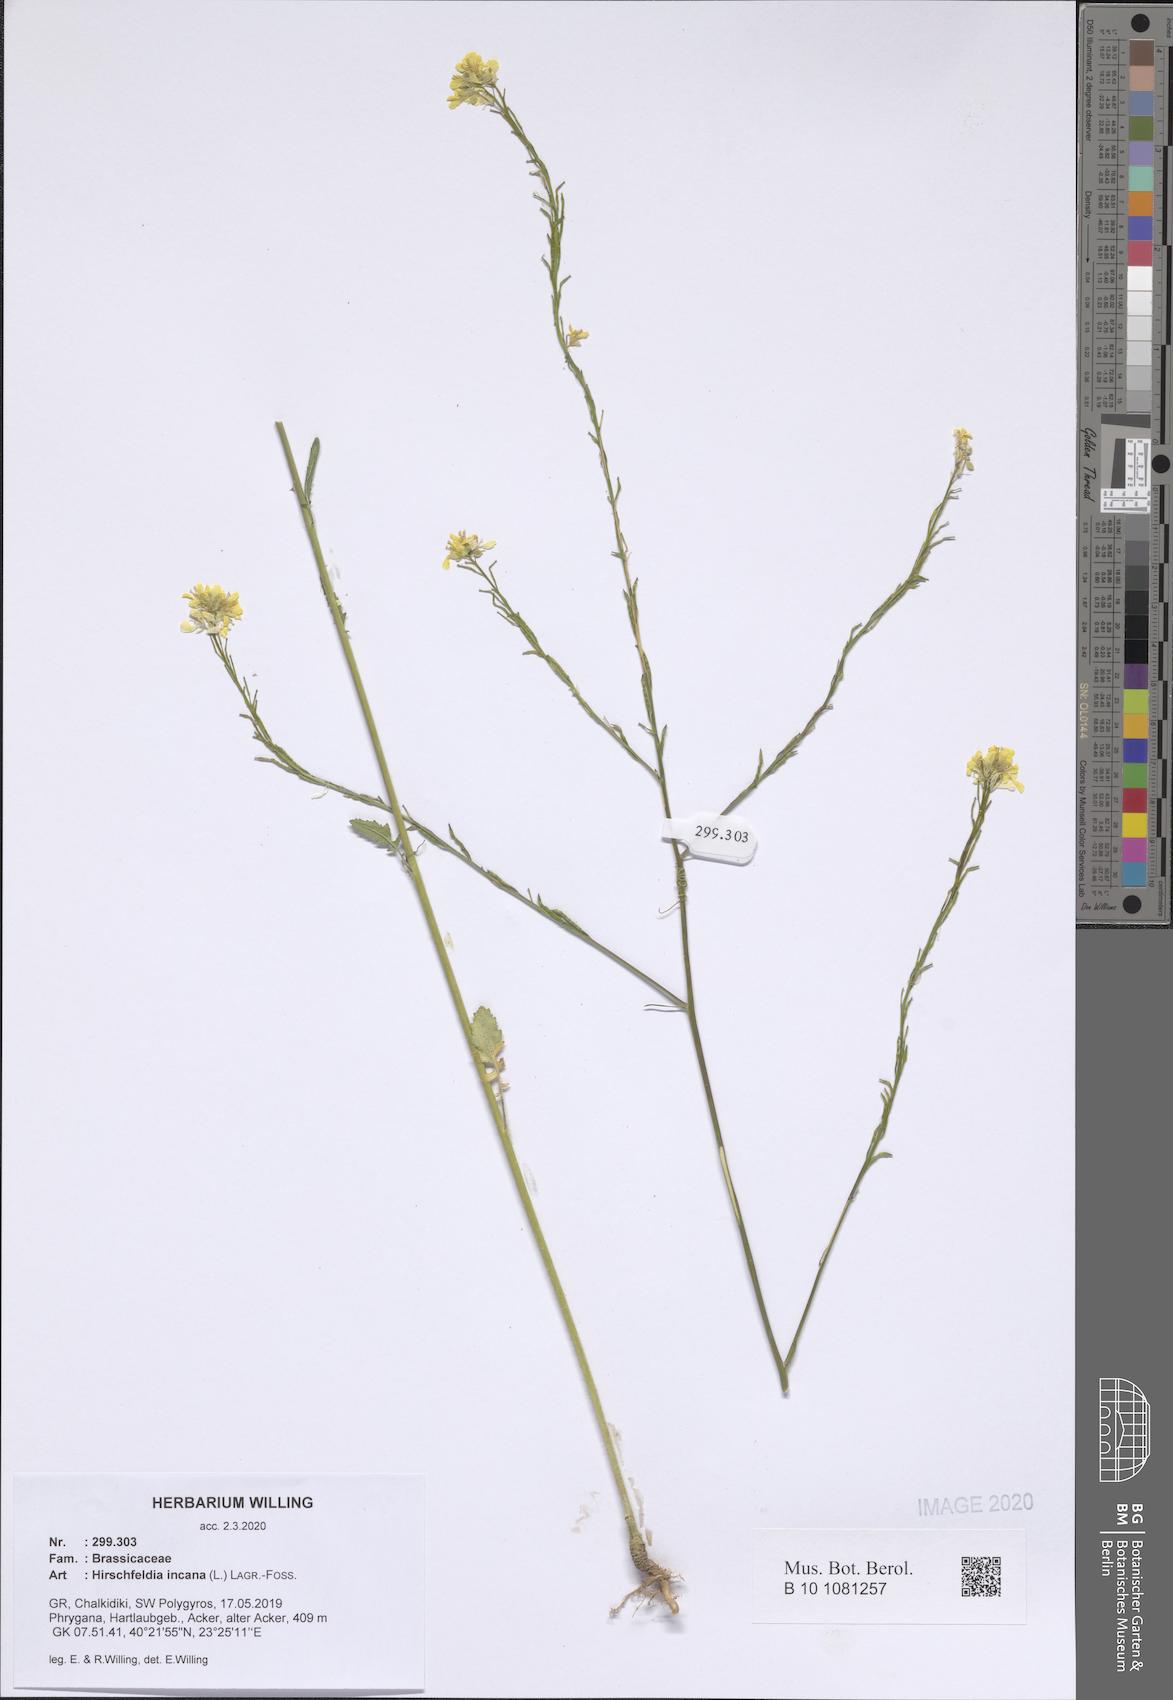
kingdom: Plantae
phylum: Tracheophyta
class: Magnoliopsida
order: Brassicales
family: Brassicaceae
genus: Hirschfeldia
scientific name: Hirschfeldia incana
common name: Hoary mustard
